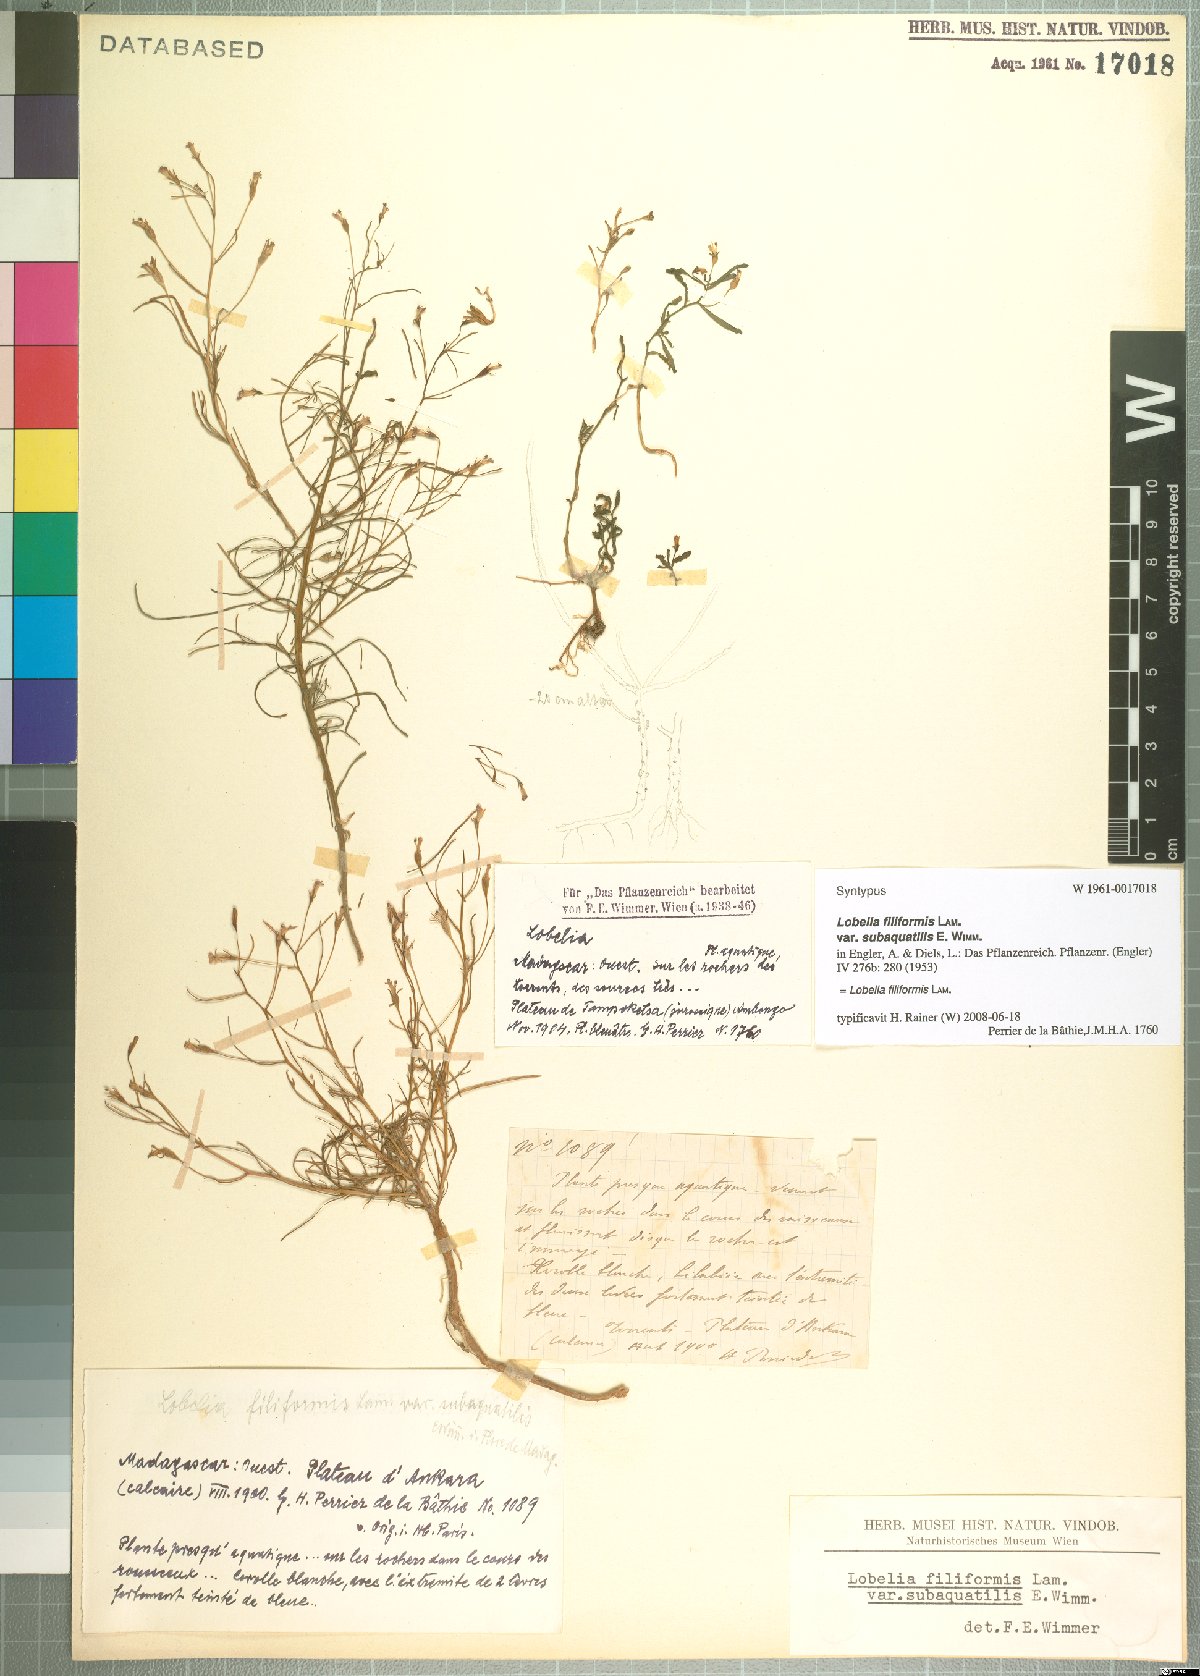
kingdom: Plantae
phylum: Tracheophyta
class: Magnoliopsida
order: Asterales
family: Campanulaceae
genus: Lobelia
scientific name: Lobelia filiformis
